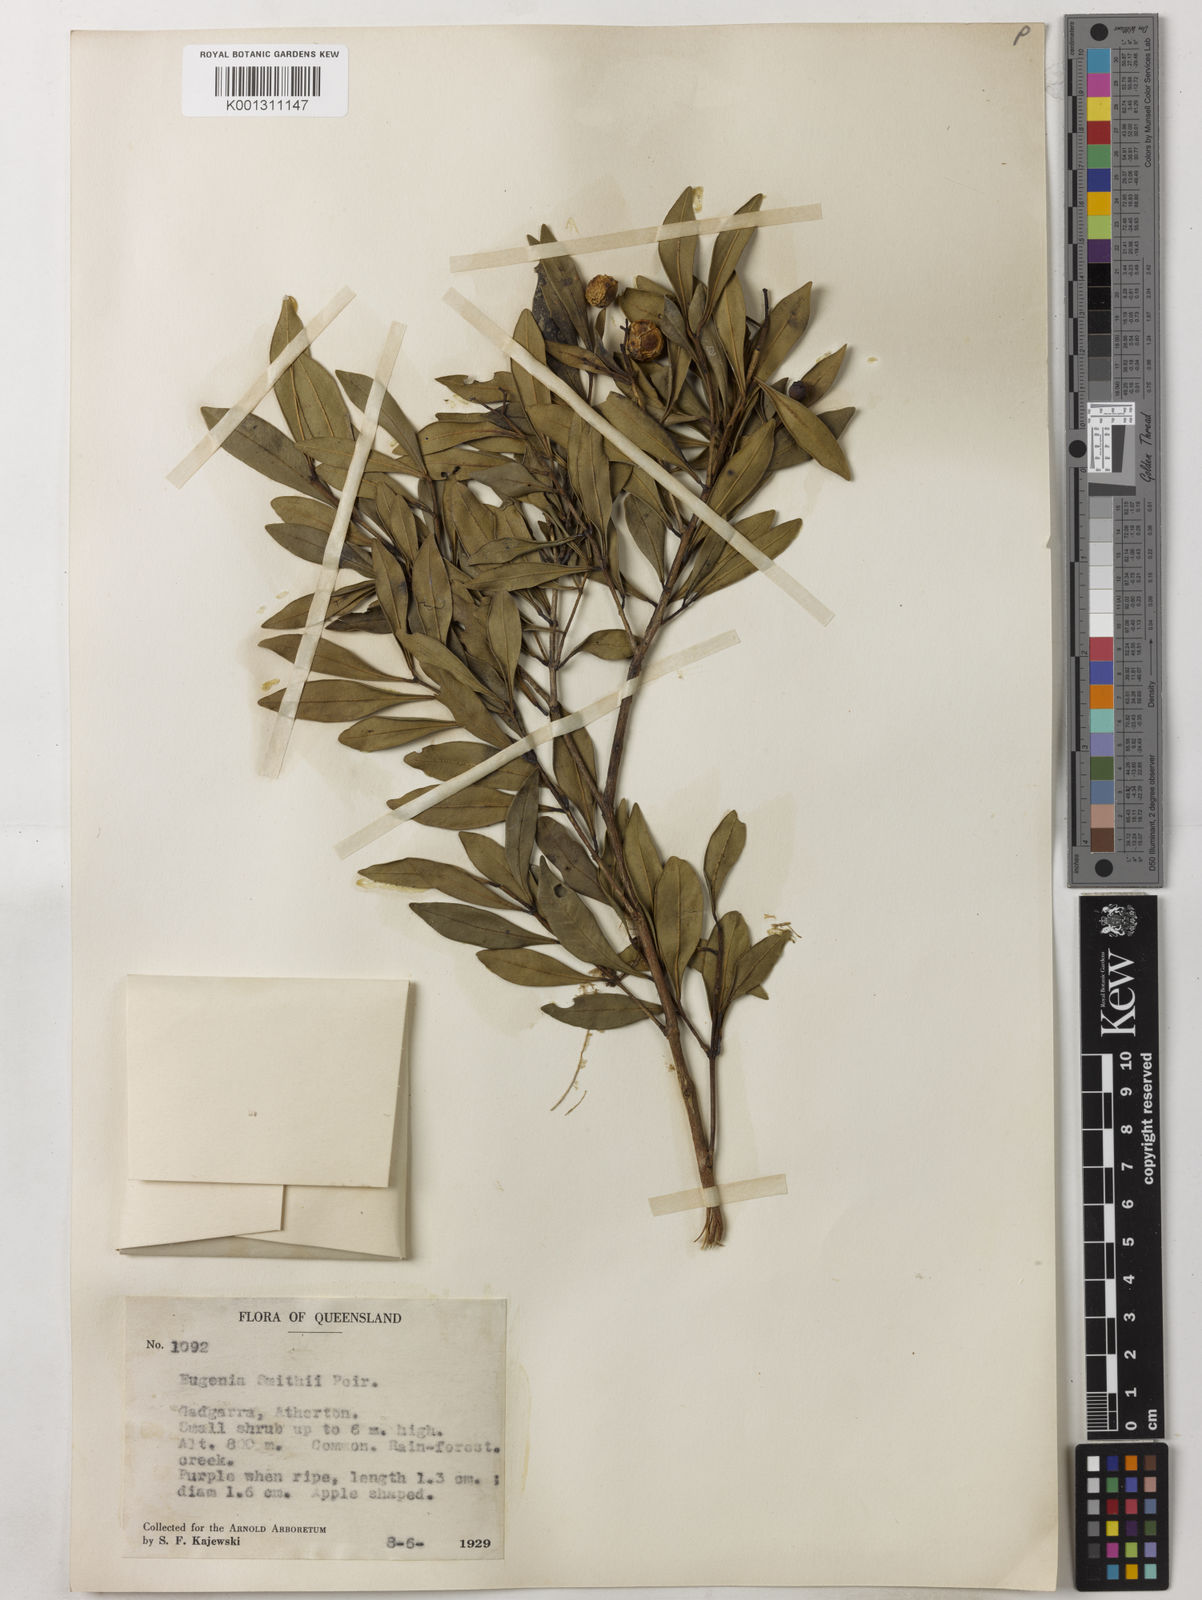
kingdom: Plantae
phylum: Tracheophyta
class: Magnoliopsida
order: Myrtales
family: Myrtaceae
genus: Syzygium
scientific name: Syzygium smithii
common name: Lilly-pilly
